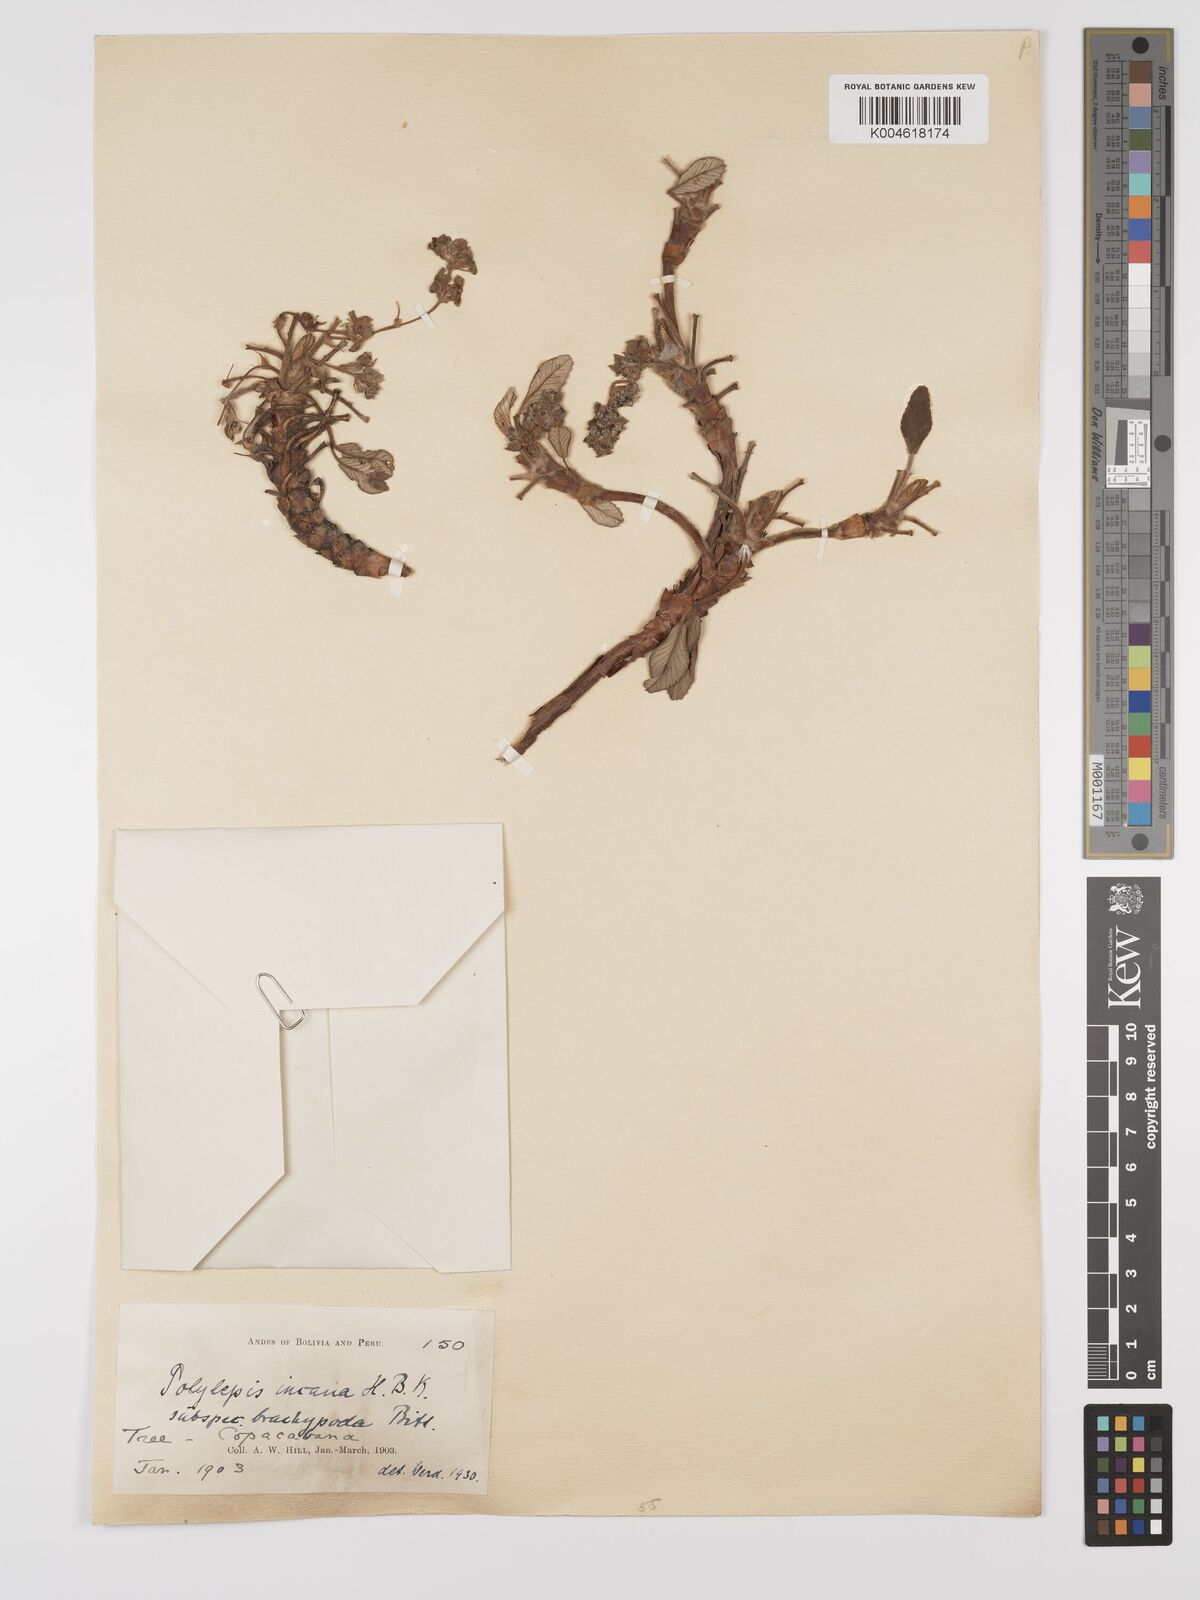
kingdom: Plantae
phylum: Tracheophyta
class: Magnoliopsida
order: Rosales
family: Rosaceae
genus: Polylepis
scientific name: Polylepis incana
